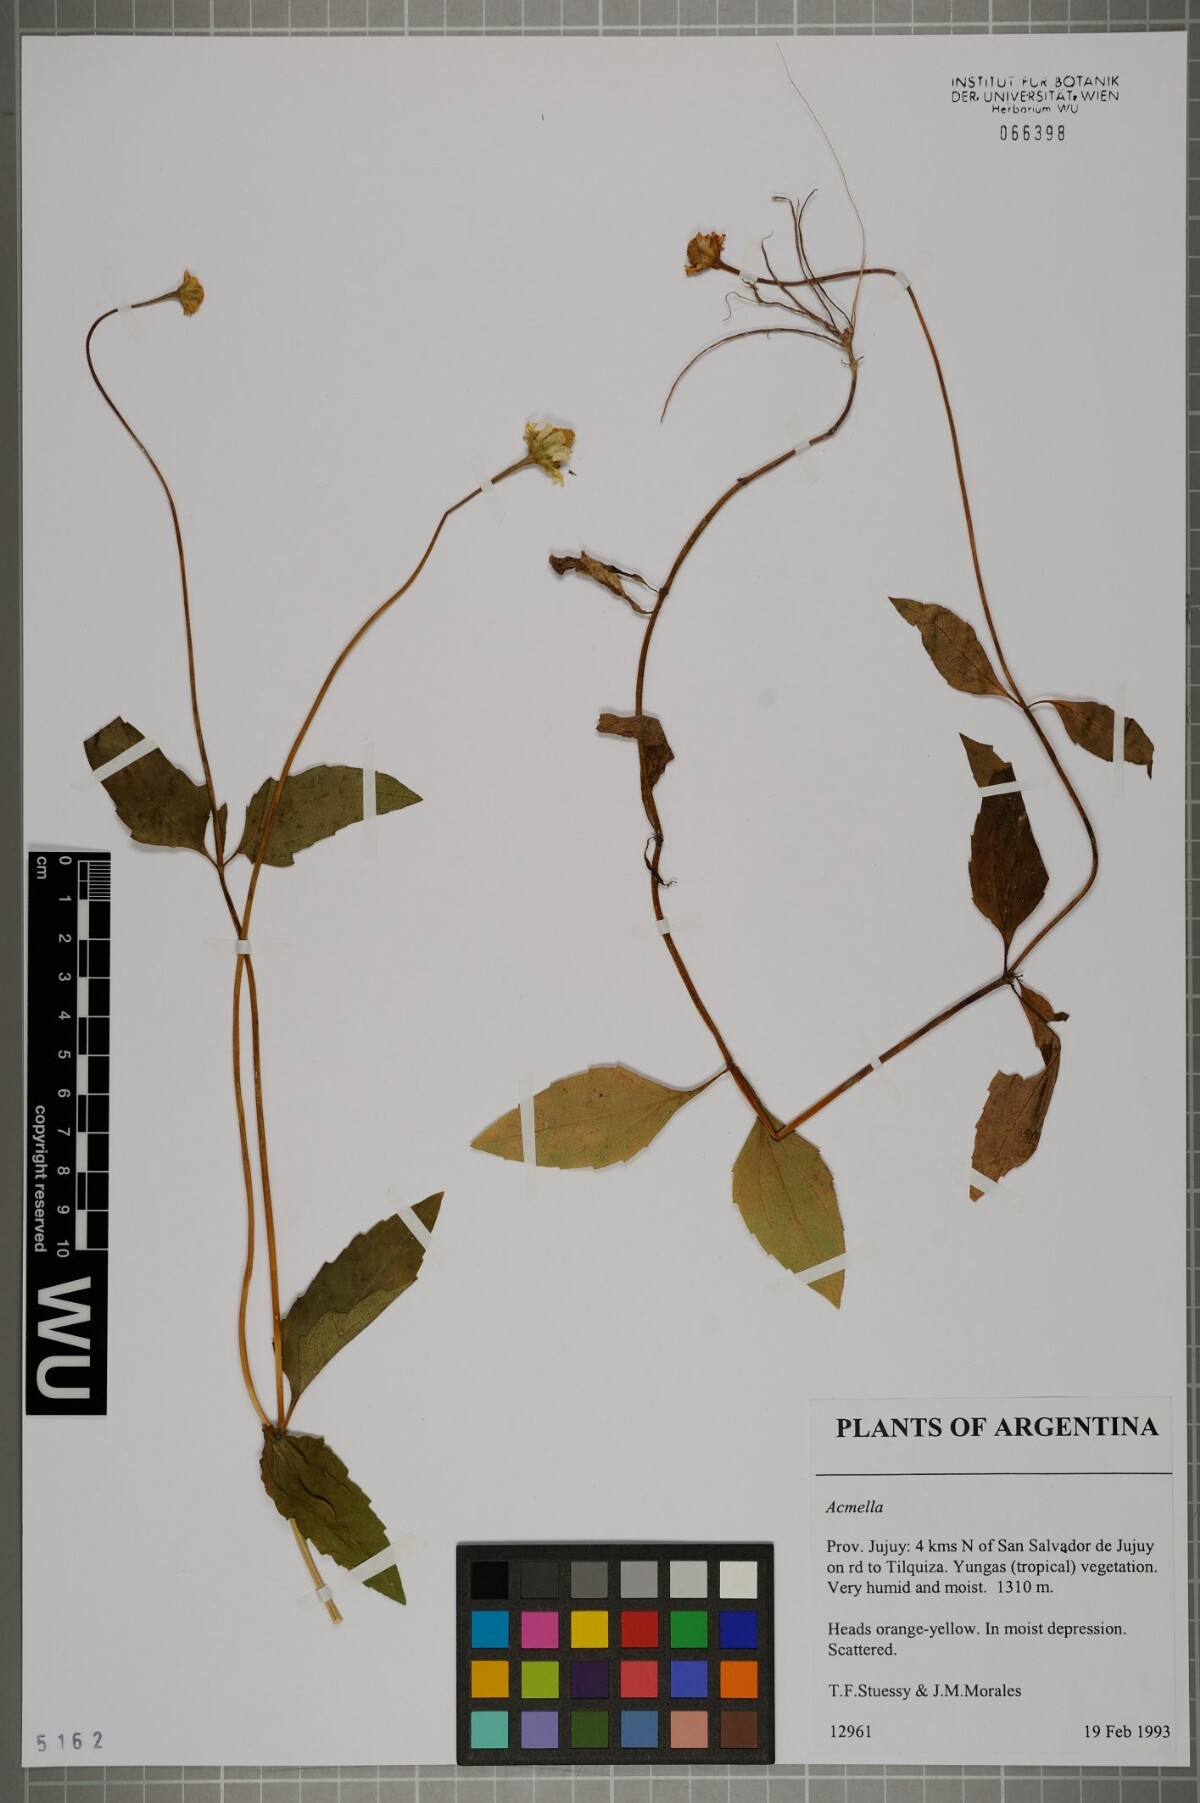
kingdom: Plantae
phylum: Tracheophyta
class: Magnoliopsida
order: Asterales
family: Asteraceae
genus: Acmella
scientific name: Acmella
